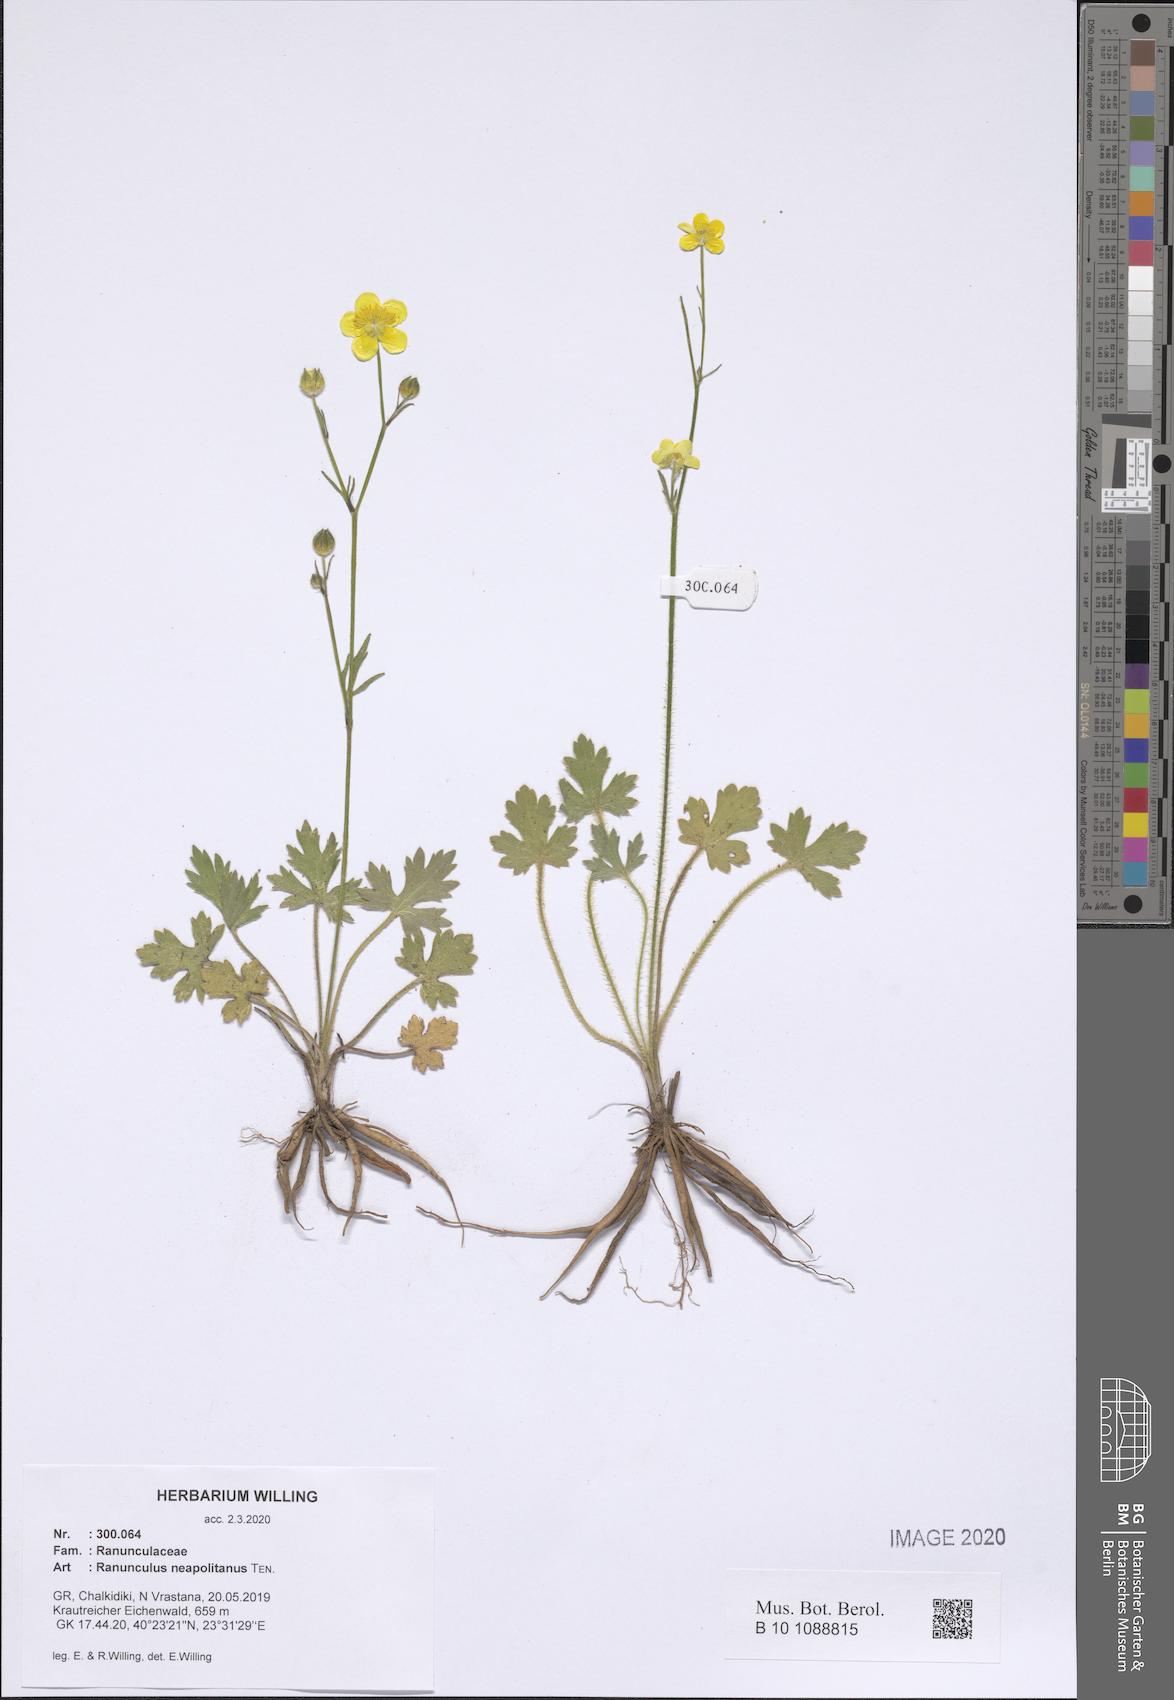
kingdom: Plantae
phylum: Tracheophyta
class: Magnoliopsida
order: Ranunculales
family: Ranunculaceae
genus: Ranunculus
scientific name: Ranunculus neapolitanus
